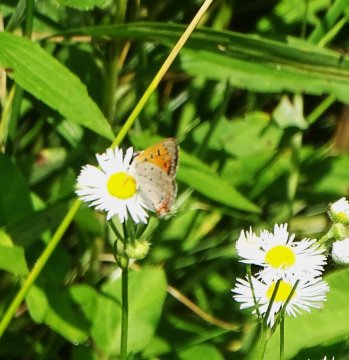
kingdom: Animalia
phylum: Arthropoda
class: Insecta
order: Lepidoptera
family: Lycaenidae
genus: Lycaena
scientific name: Lycaena phlaeas
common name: American Copper
